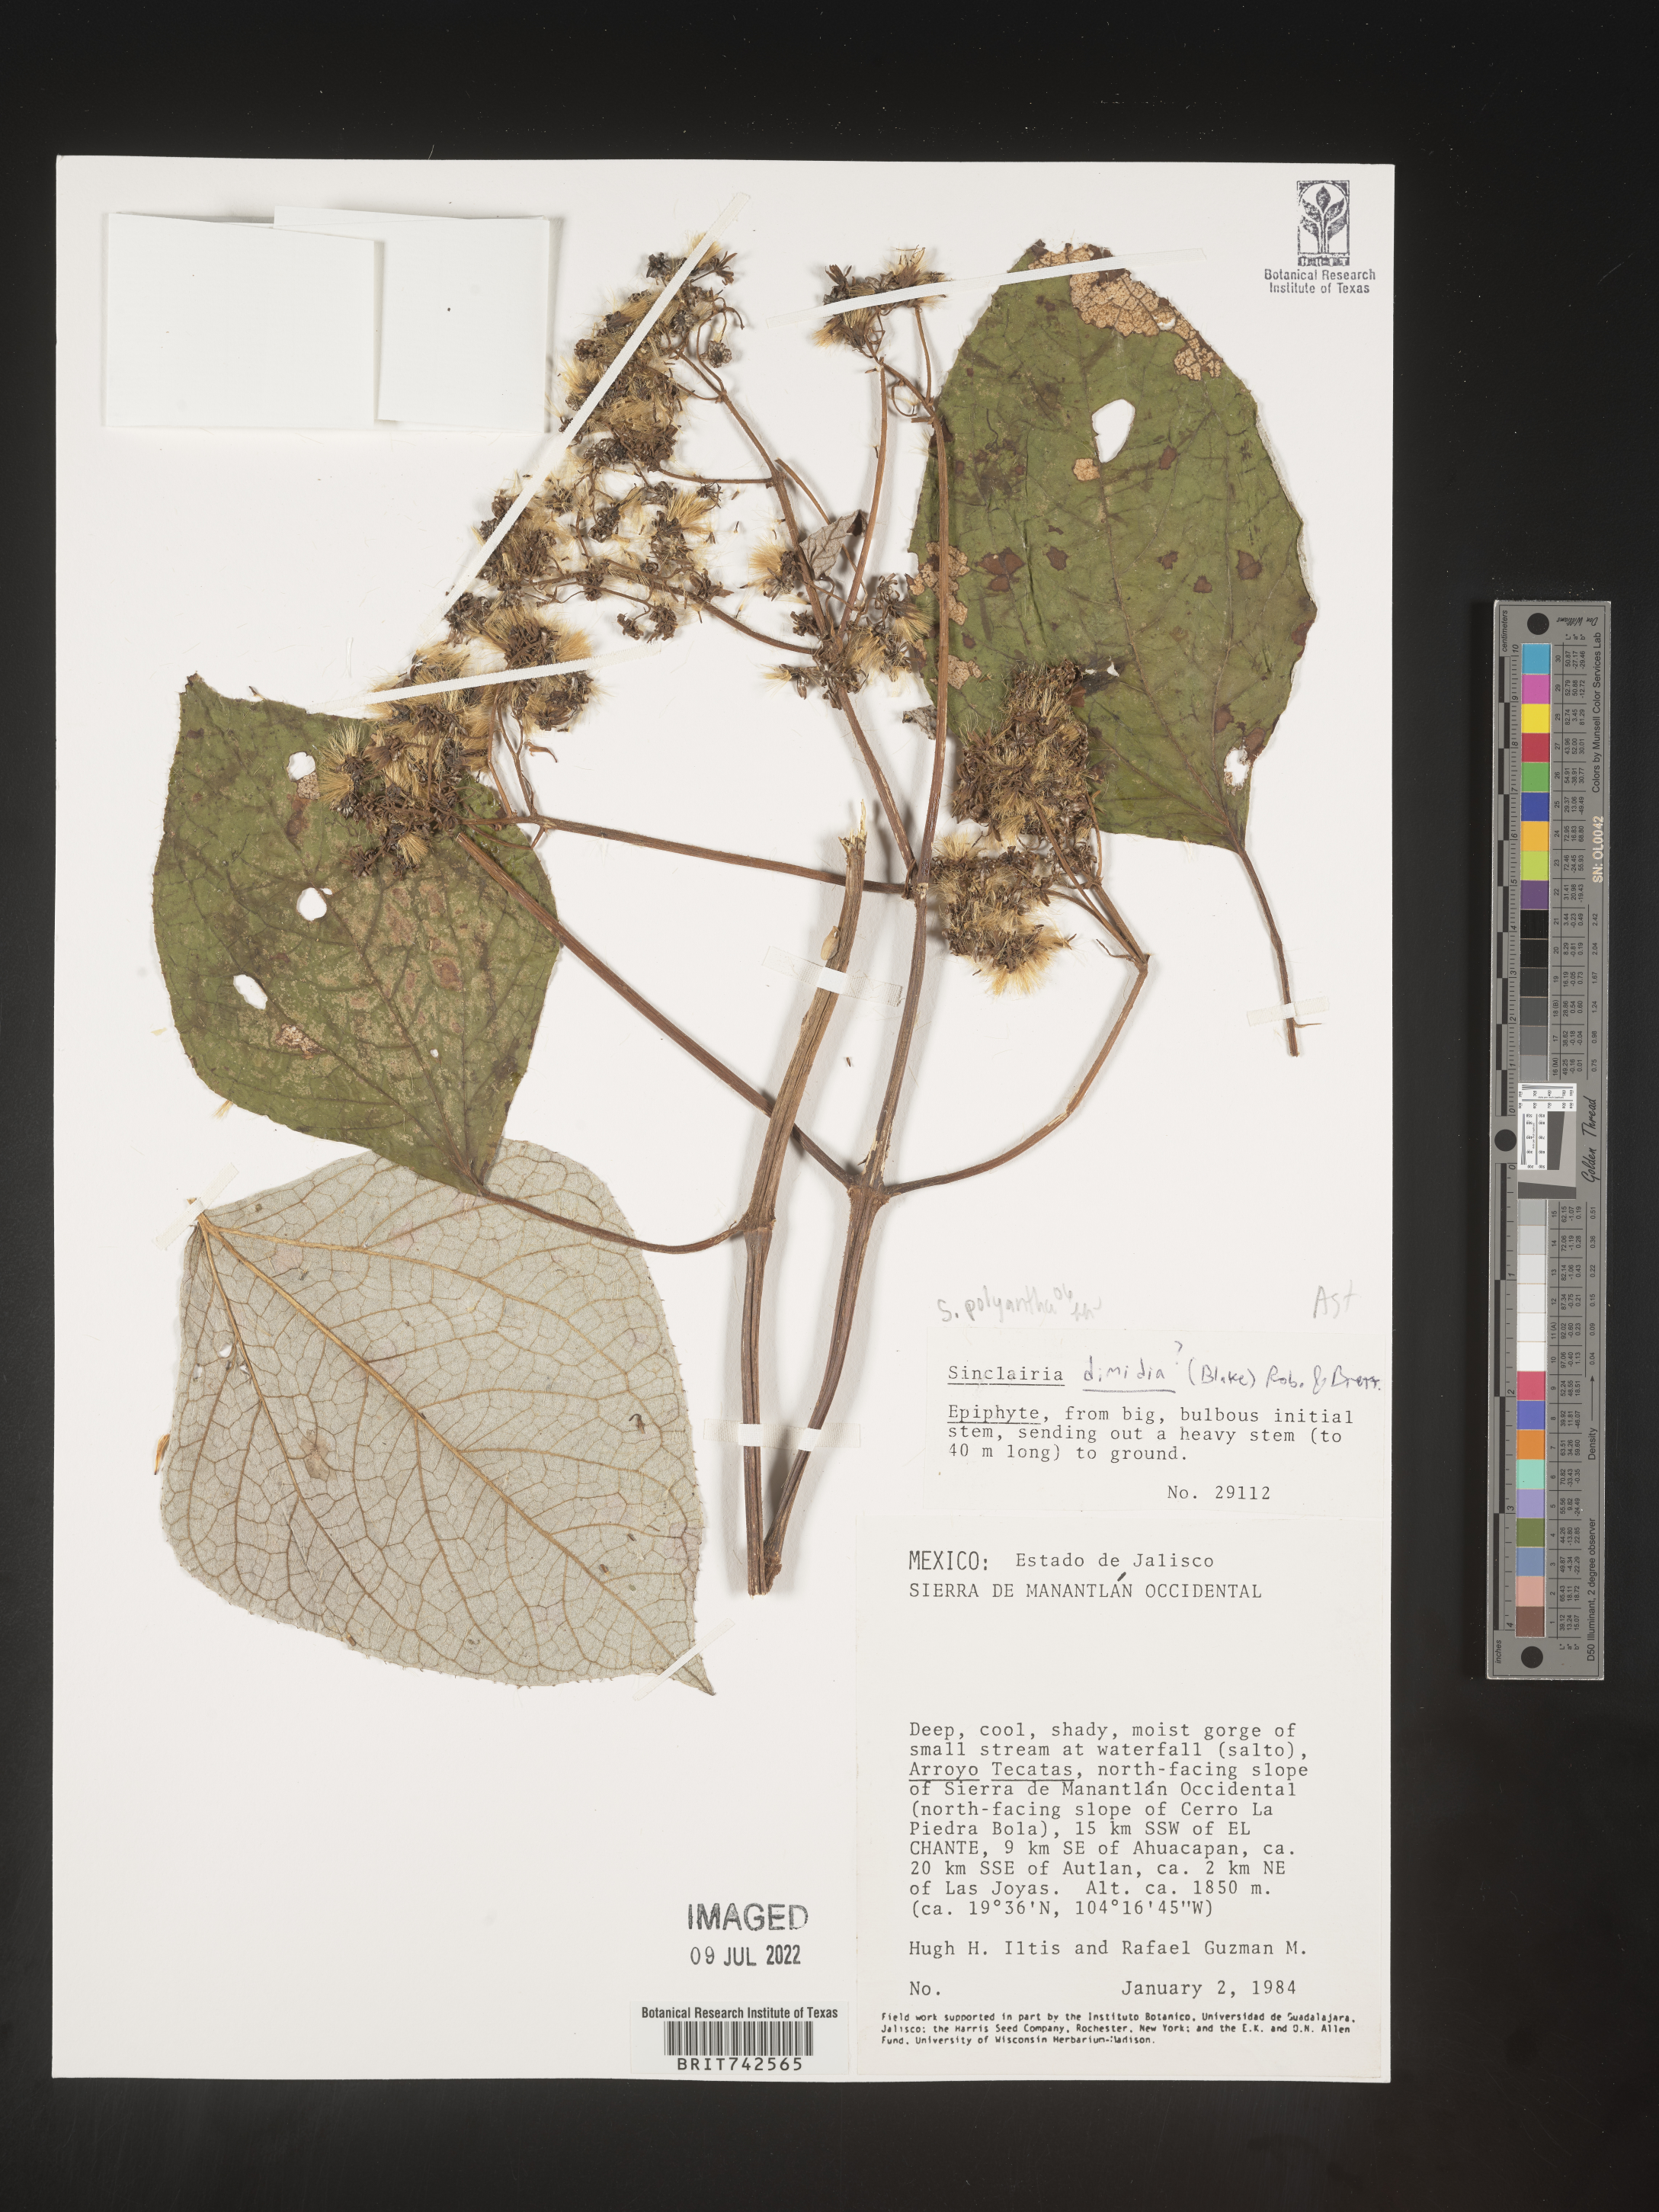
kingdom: Plantae
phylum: Tracheophyta
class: Magnoliopsida
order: Asterales
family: Asteraceae
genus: Sinclairia
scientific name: Sinclairia
